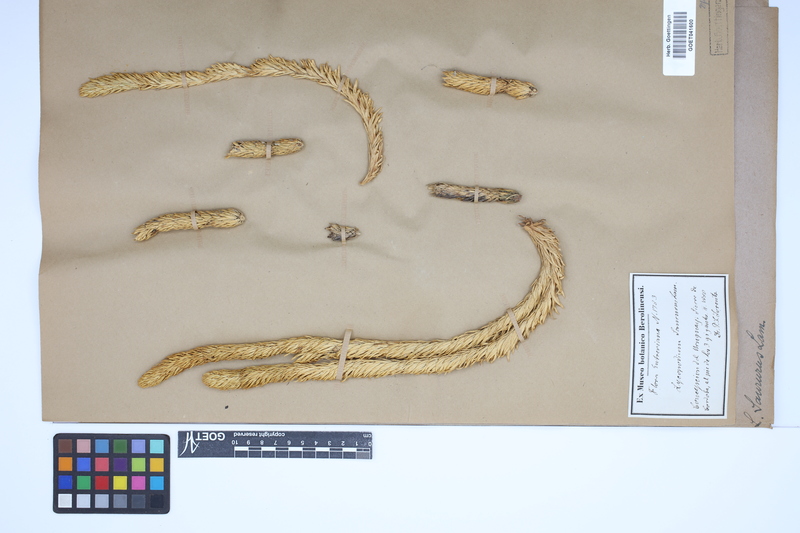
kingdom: Plantae
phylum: Tracheophyta
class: Lycopodiopsida
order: Lycopodiales
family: Lycopodiaceae
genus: Phlegmariurus
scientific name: Phlegmariurus saururus
